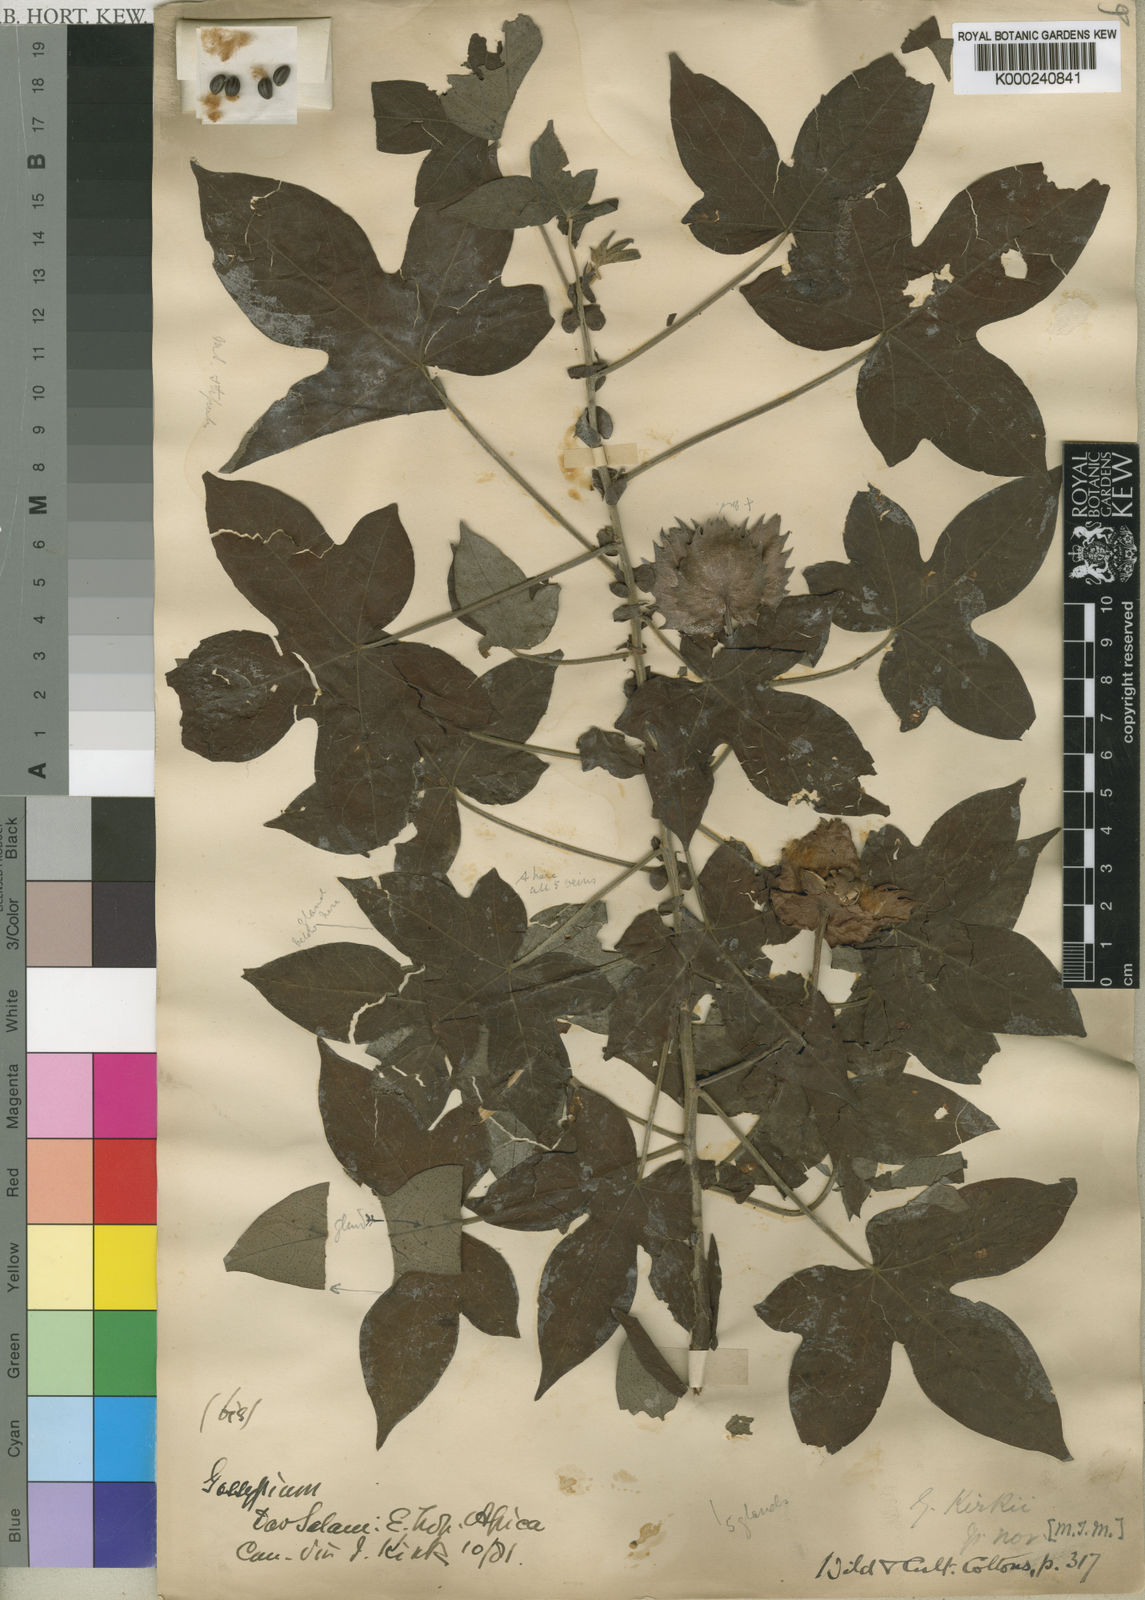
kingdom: Plantae
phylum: Tracheophyta
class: Magnoliopsida
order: Malvales
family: Malvaceae
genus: Gossypioides
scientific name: Gossypioides
